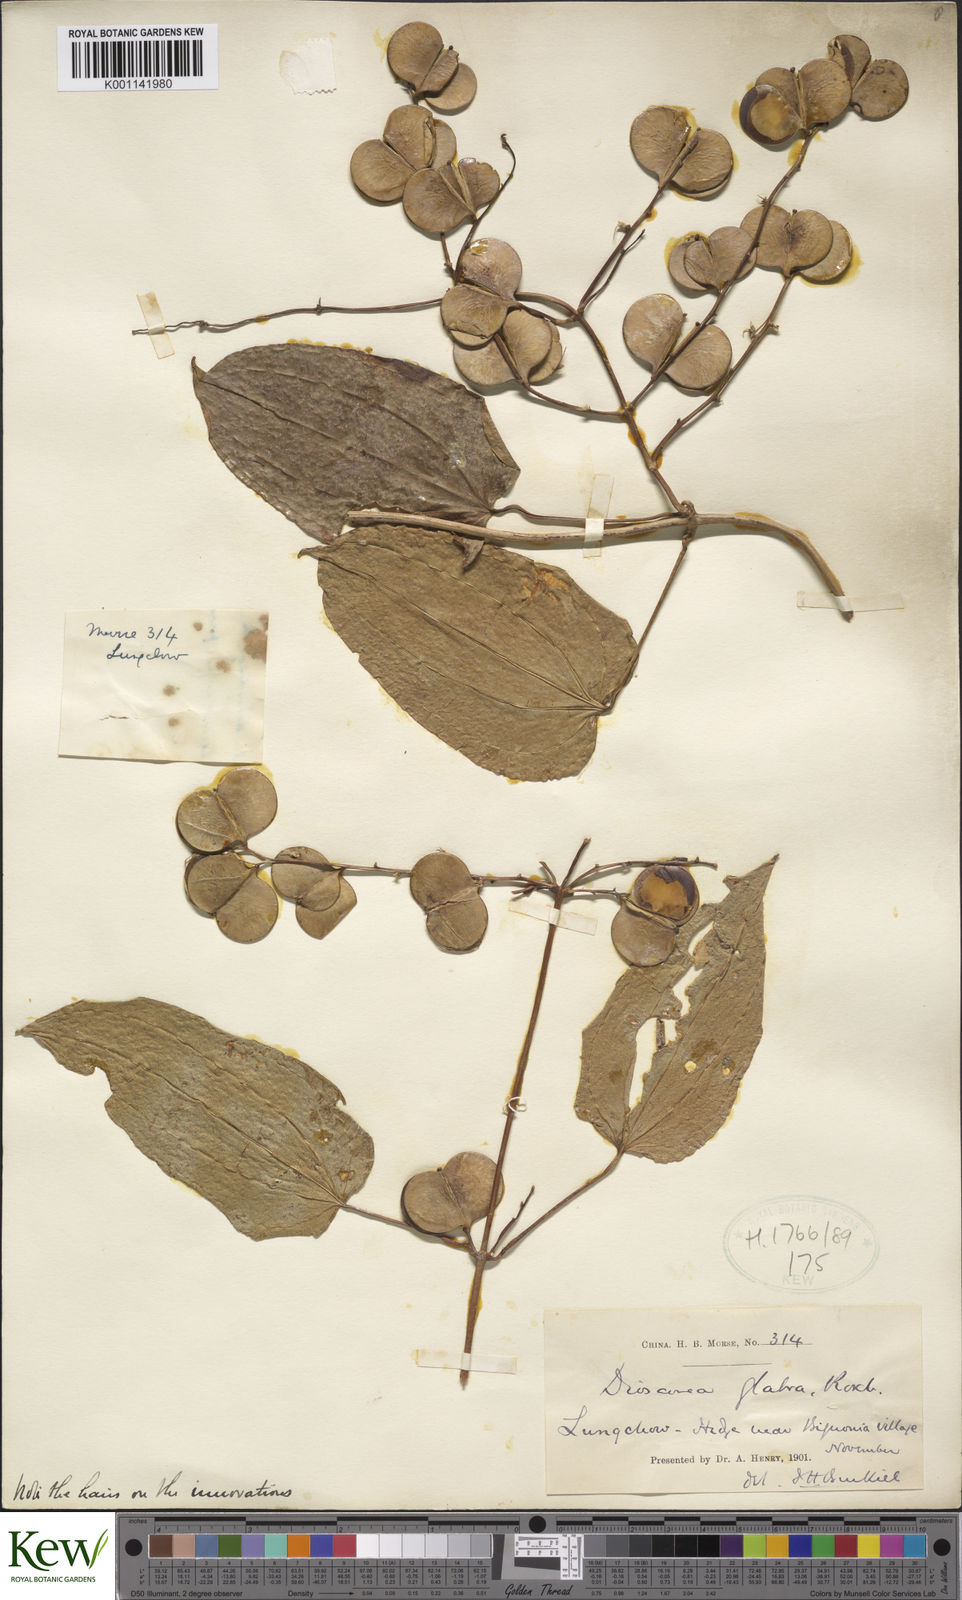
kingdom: Plantae
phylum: Tracheophyta
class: Liliopsida
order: Dioscoreales
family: Dioscoreaceae
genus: Dioscorea
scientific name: Dioscorea glabra
